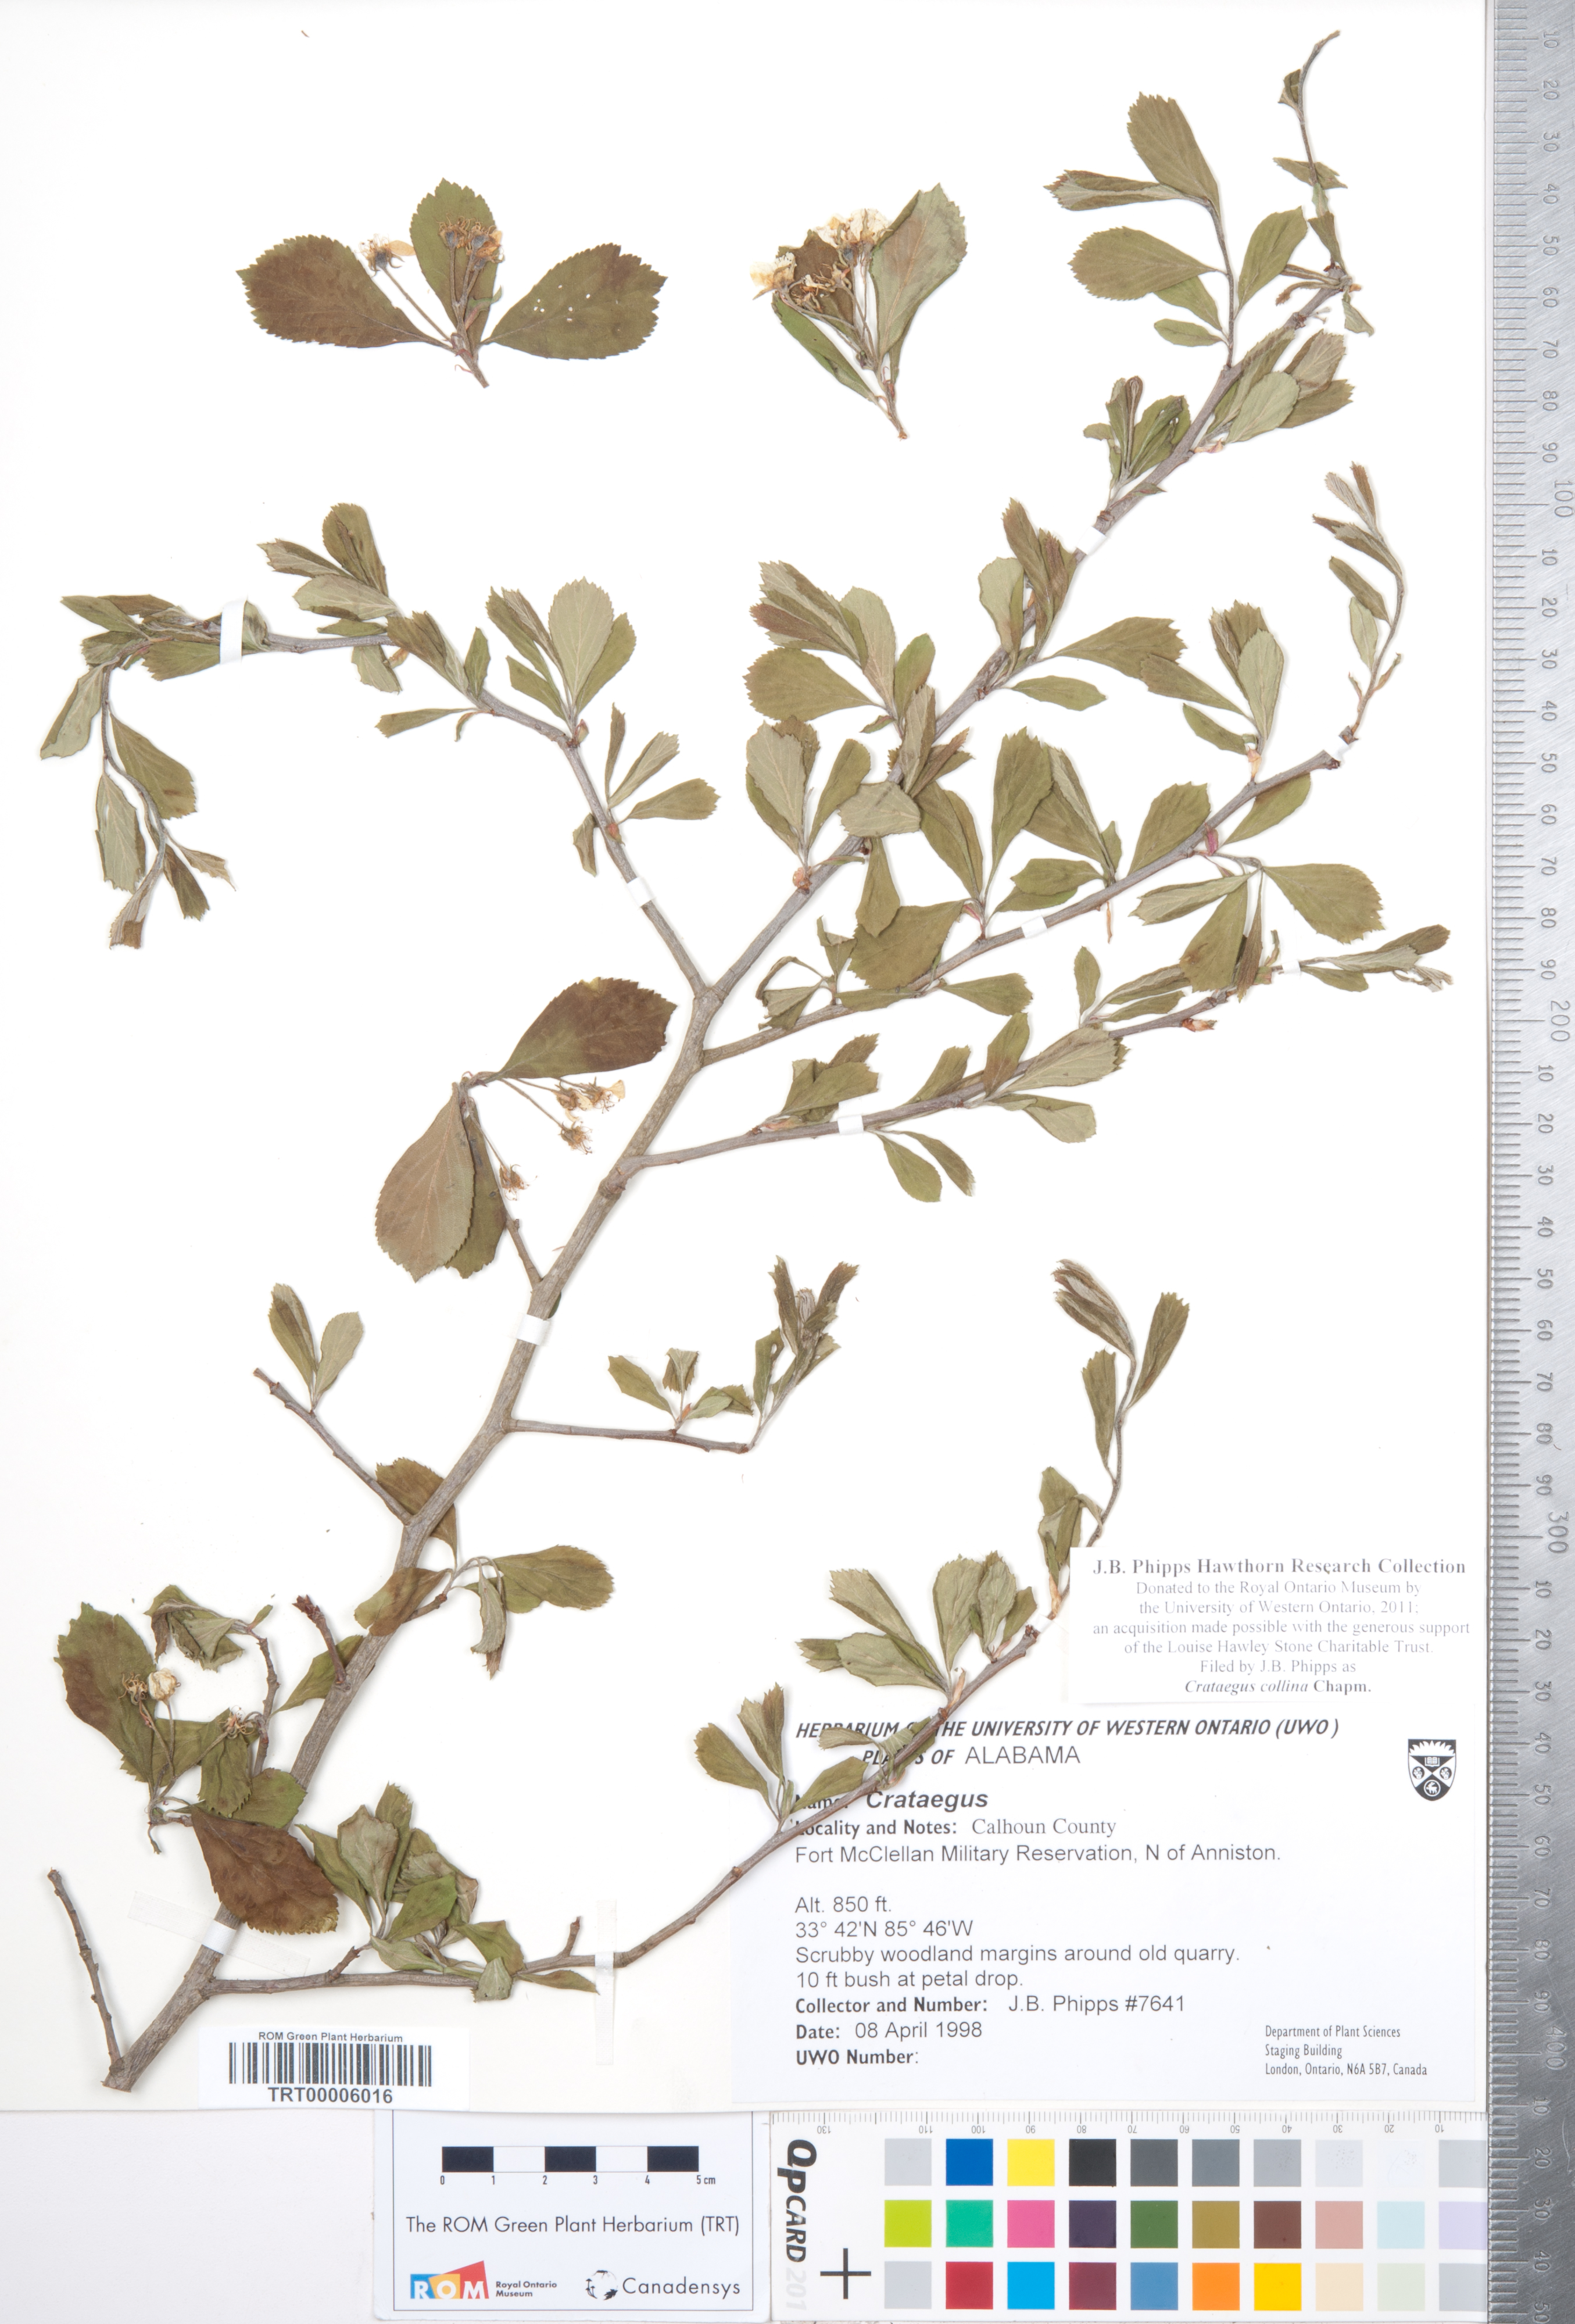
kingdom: Plantae
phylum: Tracheophyta
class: Magnoliopsida
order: Rosales
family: Rosaceae
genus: Crataegus
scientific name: Crataegus collina
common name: Hillside hawthorn
